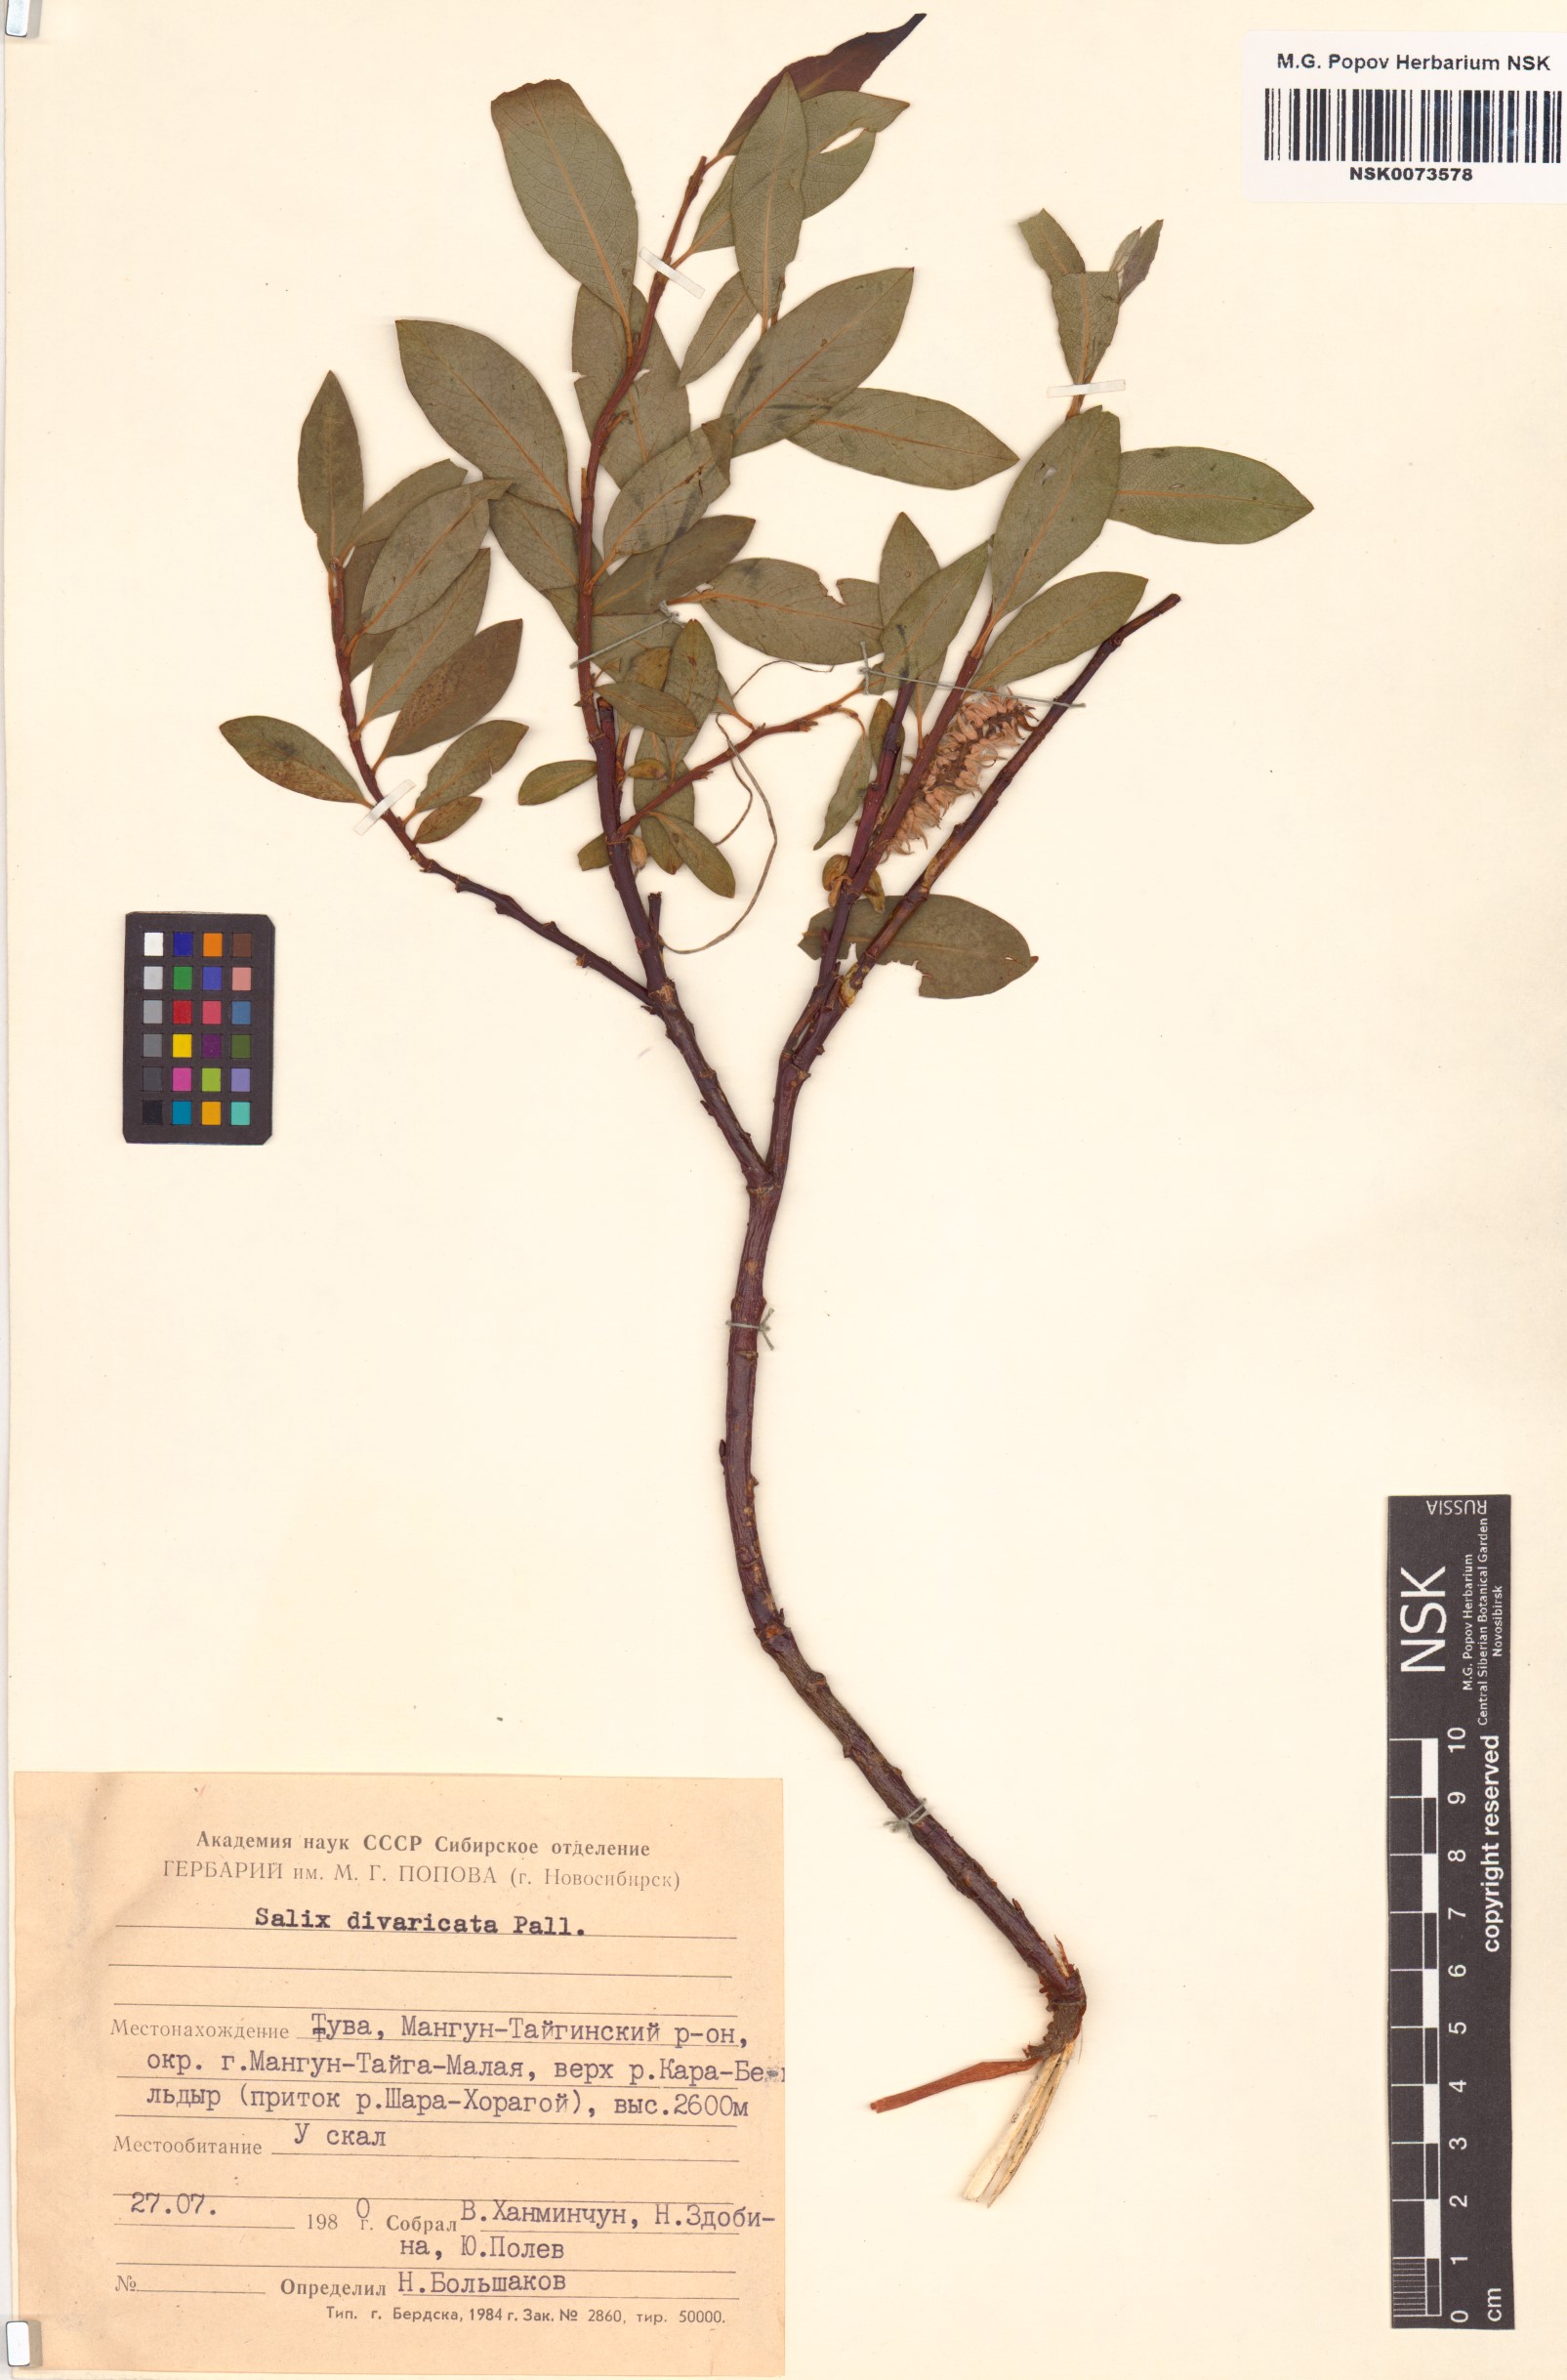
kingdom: Plantae
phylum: Tracheophyta
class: Magnoliopsida
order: Malpighiales
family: Salicaceae
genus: Salix
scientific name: Salix divaricata
